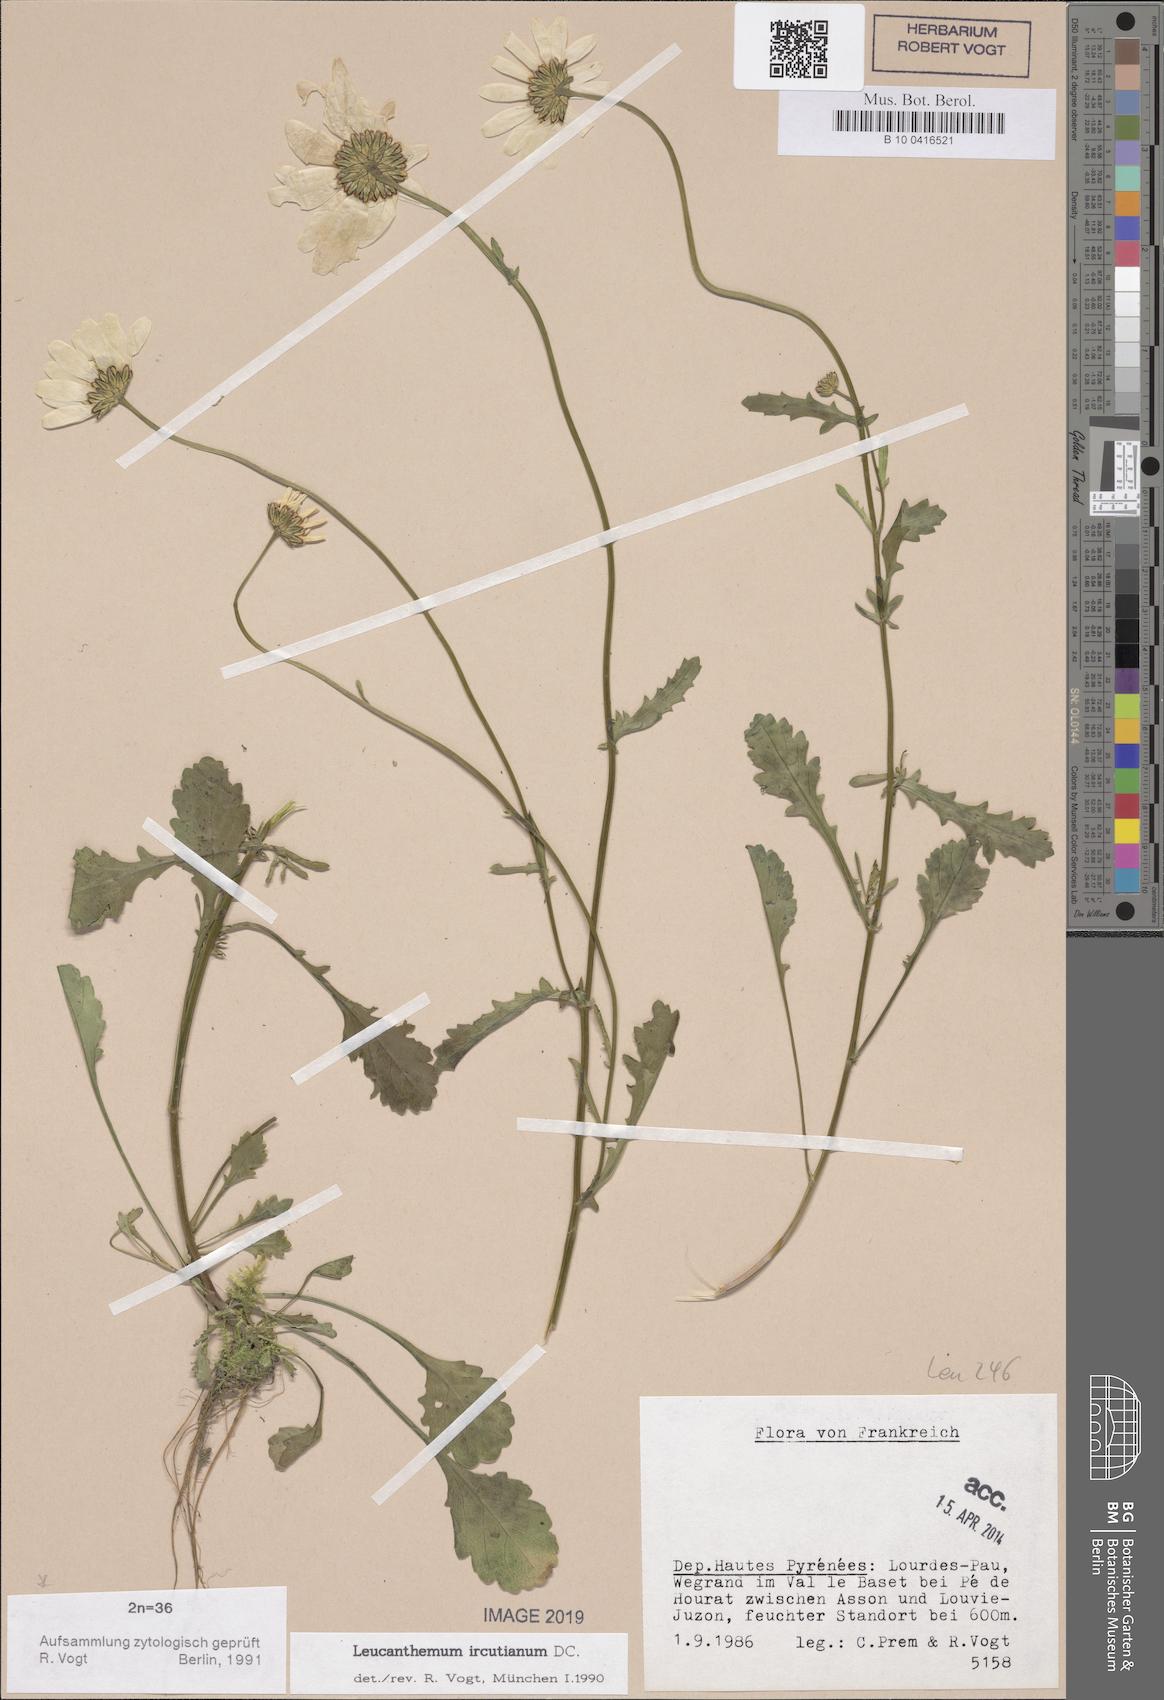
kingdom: Plantae
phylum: Tracheophyta
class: Magnoliopsida
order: Asterales
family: Asteraceae
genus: Leucanthemum
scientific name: Leucanthemum ircutianum
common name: Daisy
